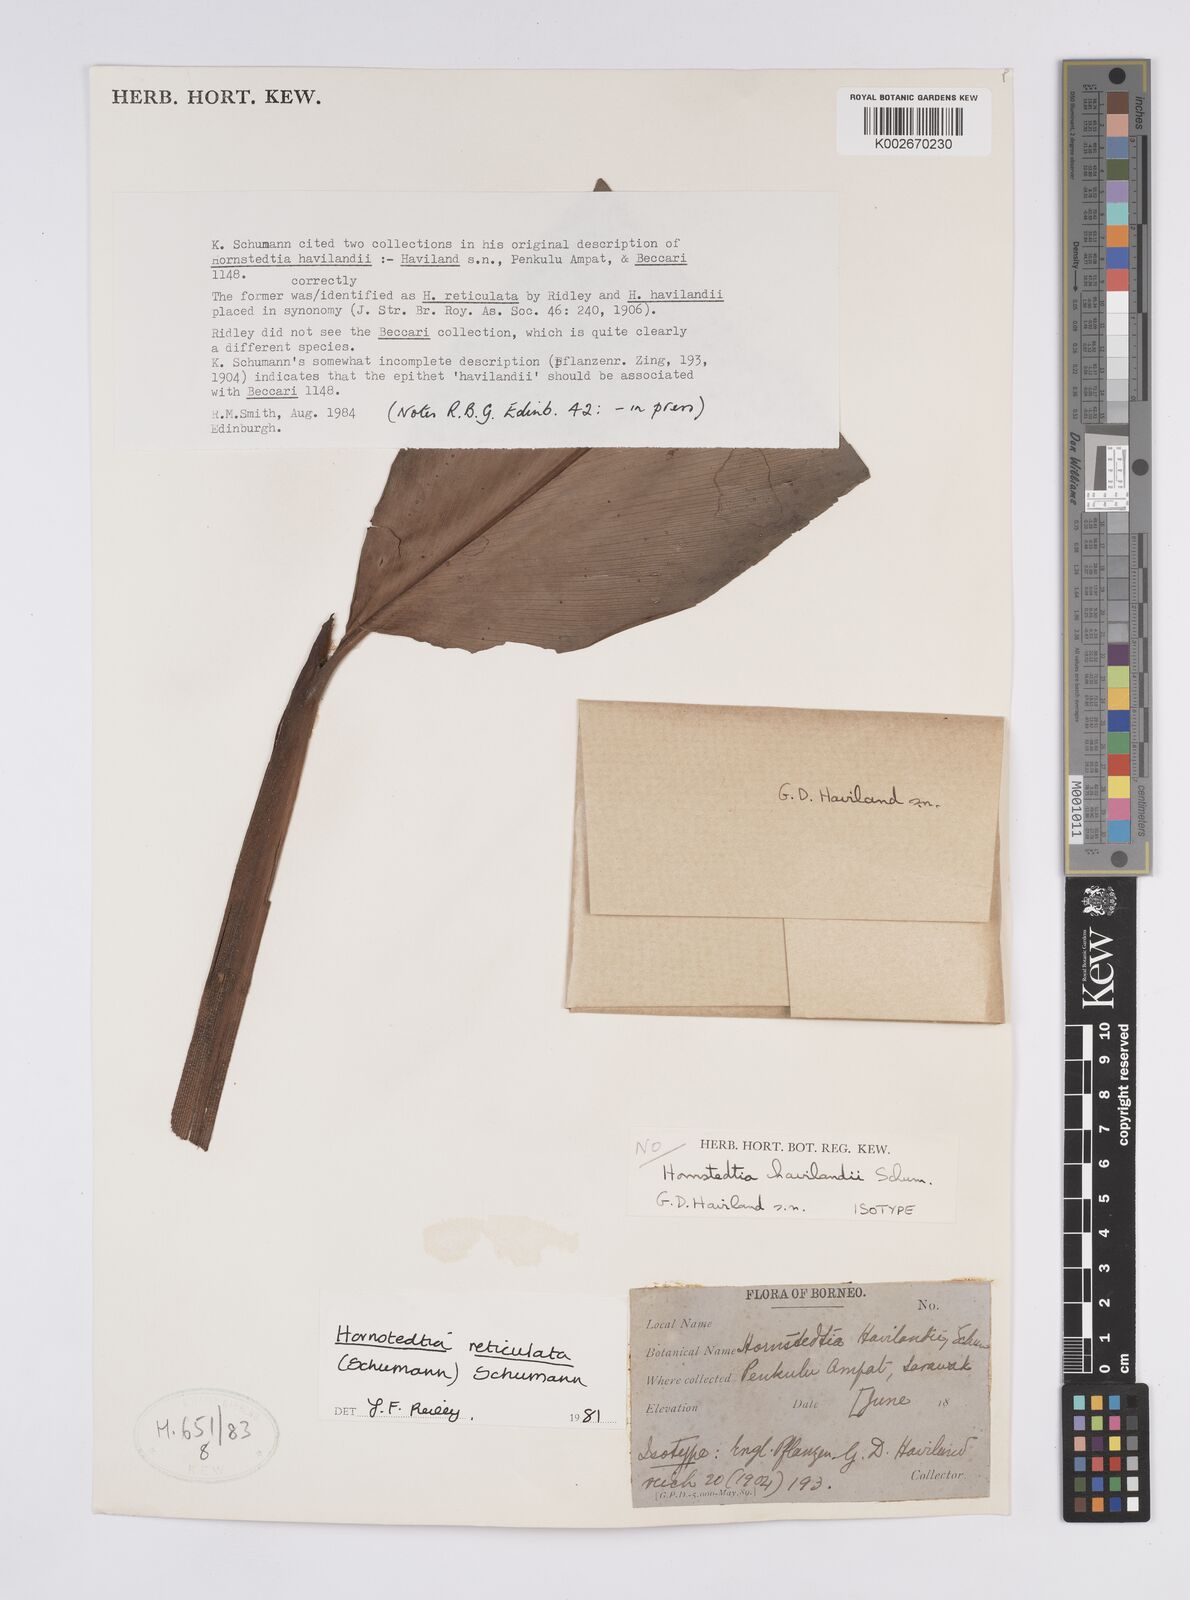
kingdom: Plantae
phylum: Tracheophyta
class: Liliopsida
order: Zingiberales
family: Zingiberaceae
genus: Hornstedtia
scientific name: Hornstedtia reticulata
